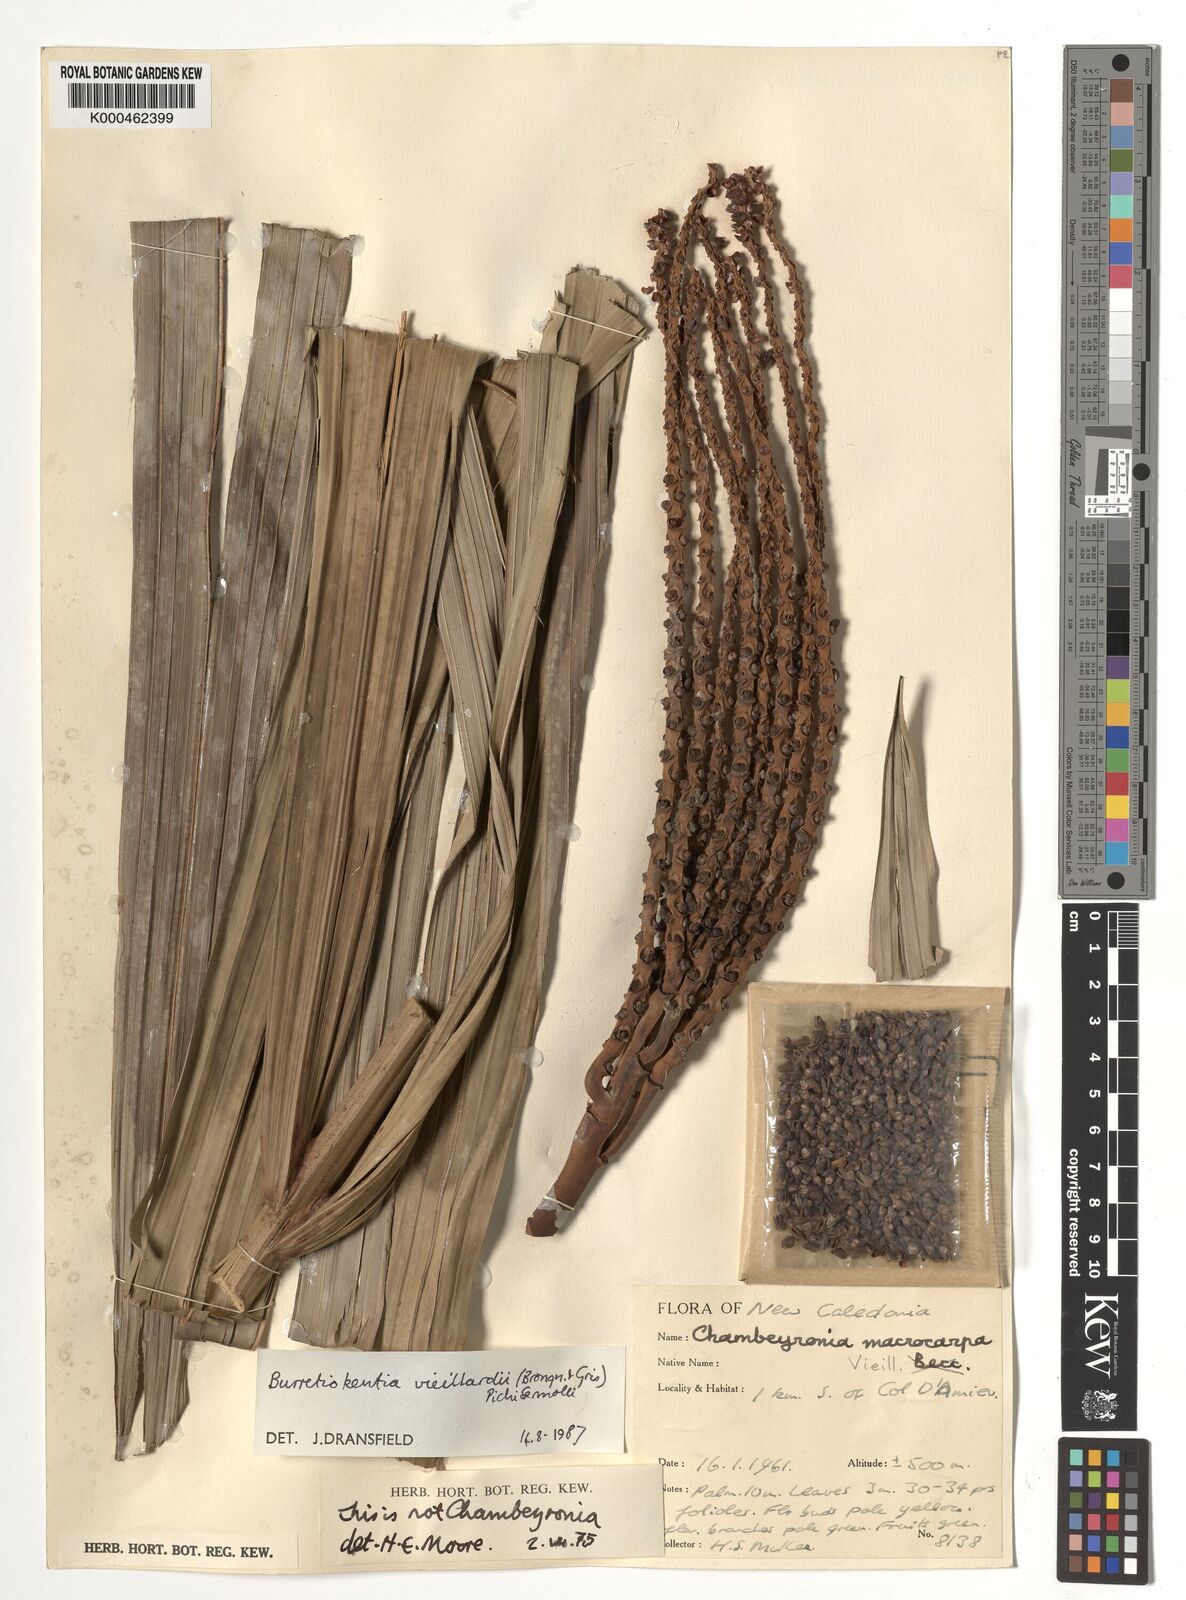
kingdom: Plantae
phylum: Tracheophyta
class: Liliopsida
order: Arecales
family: Arecaceae
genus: Burretiokentia
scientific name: Burretiokentia vieillardii
